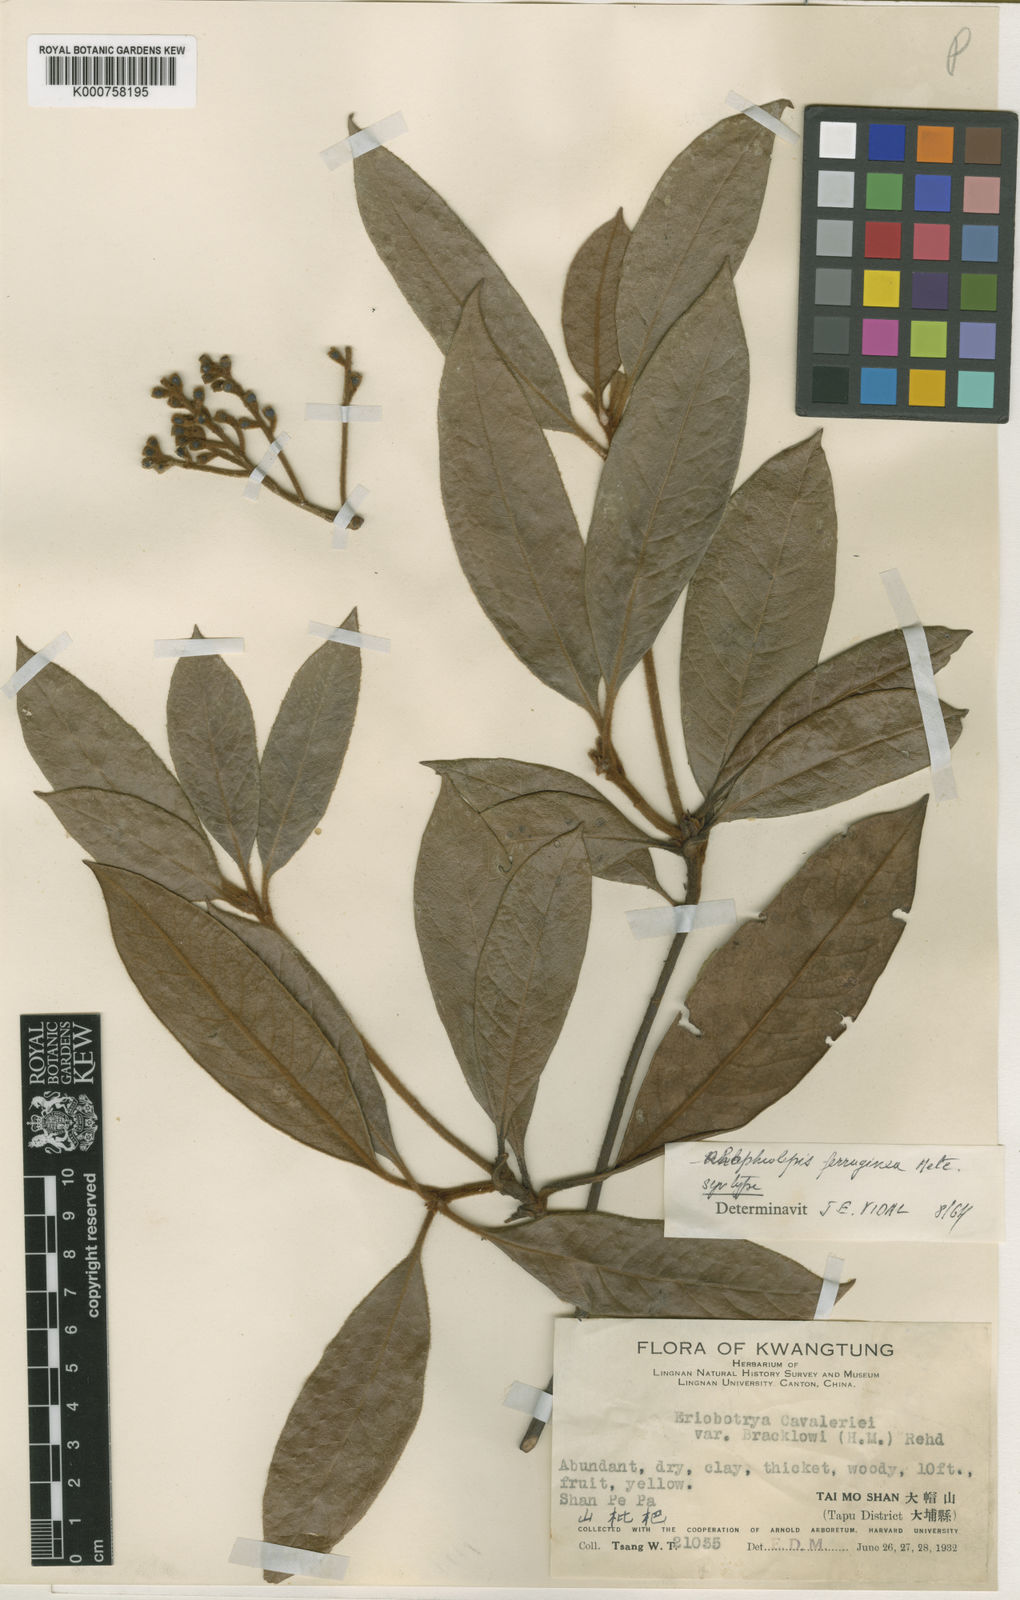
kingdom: Plantae
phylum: Tracheophyta
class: Magnoliopsida
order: Rosales
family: Rosaceae
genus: Rhaphiolepis
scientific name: Rhaphiolepis ferruginea
